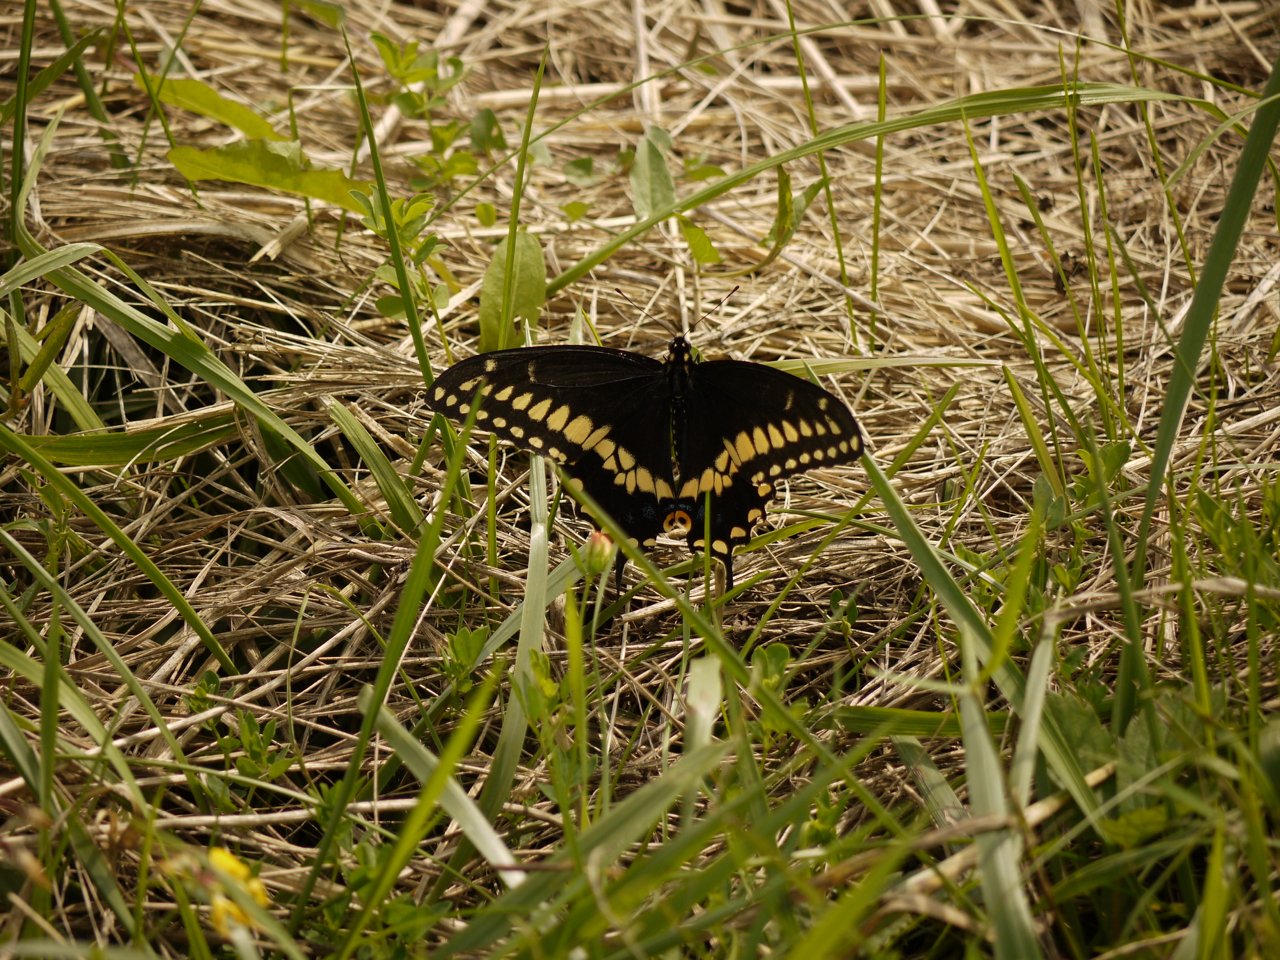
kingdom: Animalia
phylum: Arthropoda
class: Insecta
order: Lepidoptera
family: Papilionidae
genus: Papilio
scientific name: Papilio polyxenes
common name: Black Swallowtail
